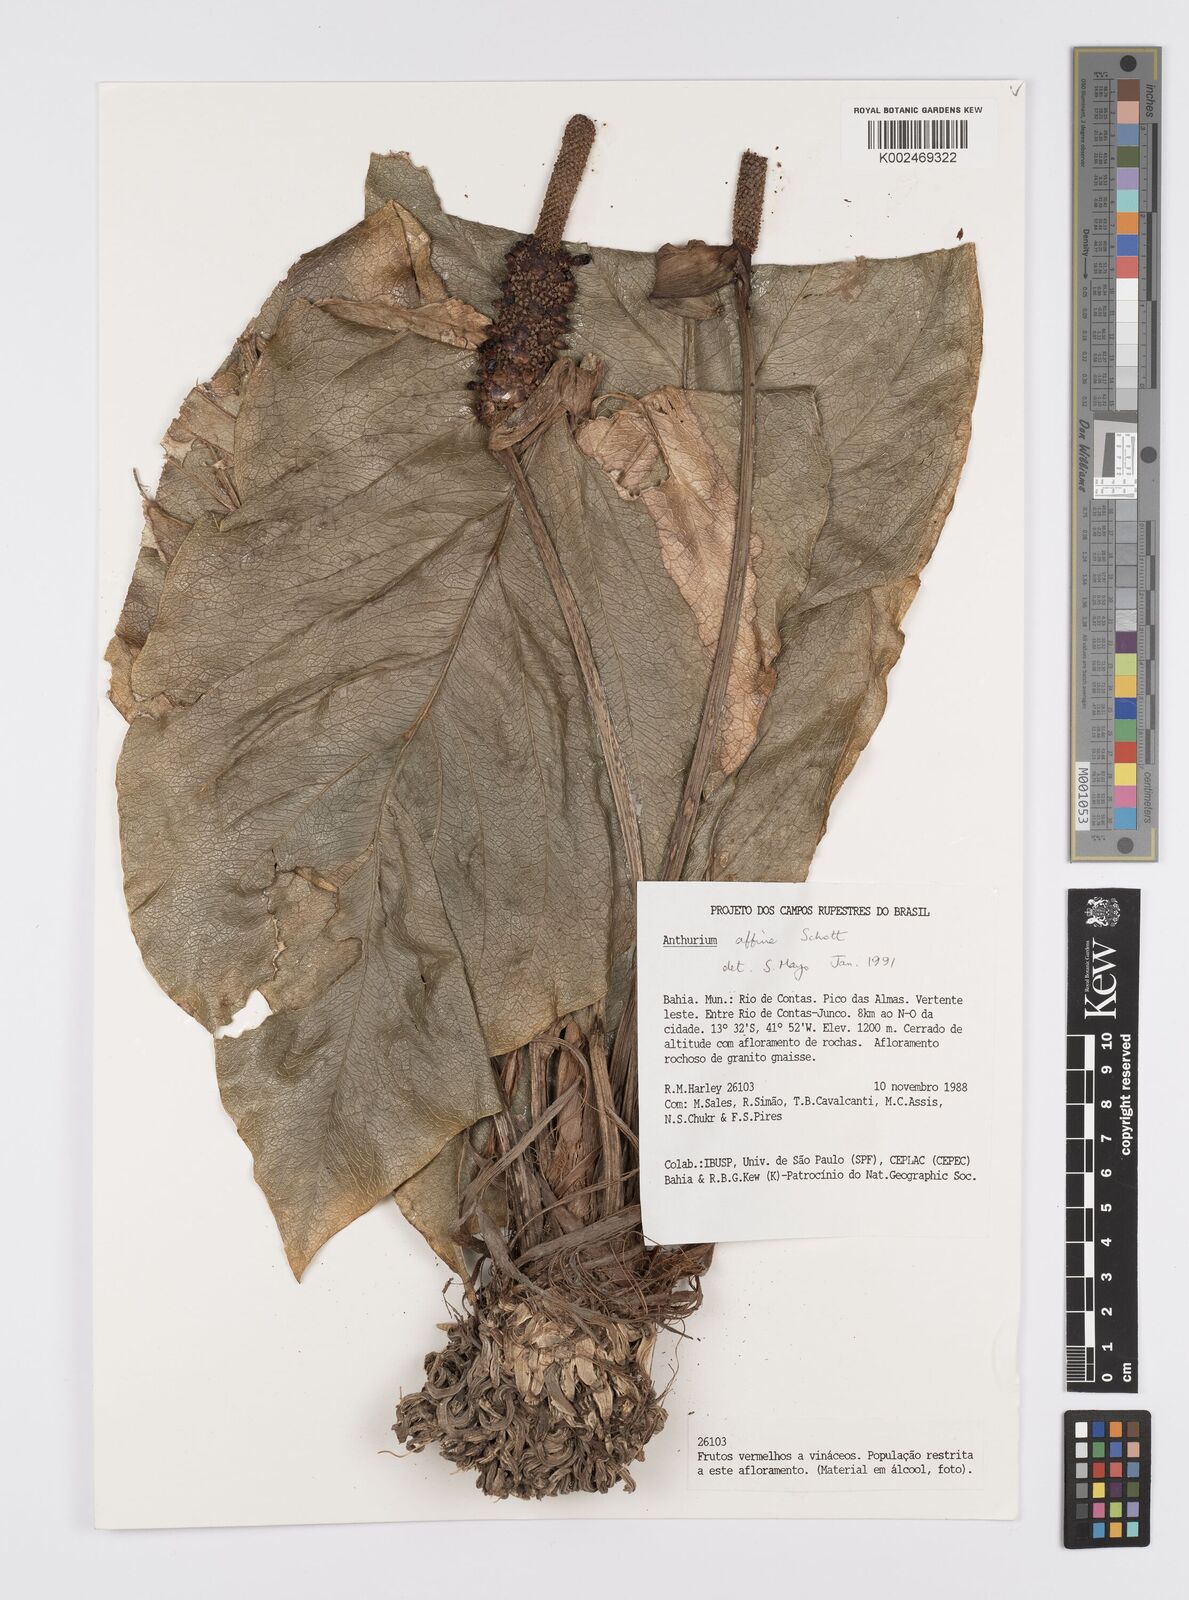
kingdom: Plantae
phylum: Tracheophyta
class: Liliopsida
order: Alismatales
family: Araceae
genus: Anthurium
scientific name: Anthurium affine
